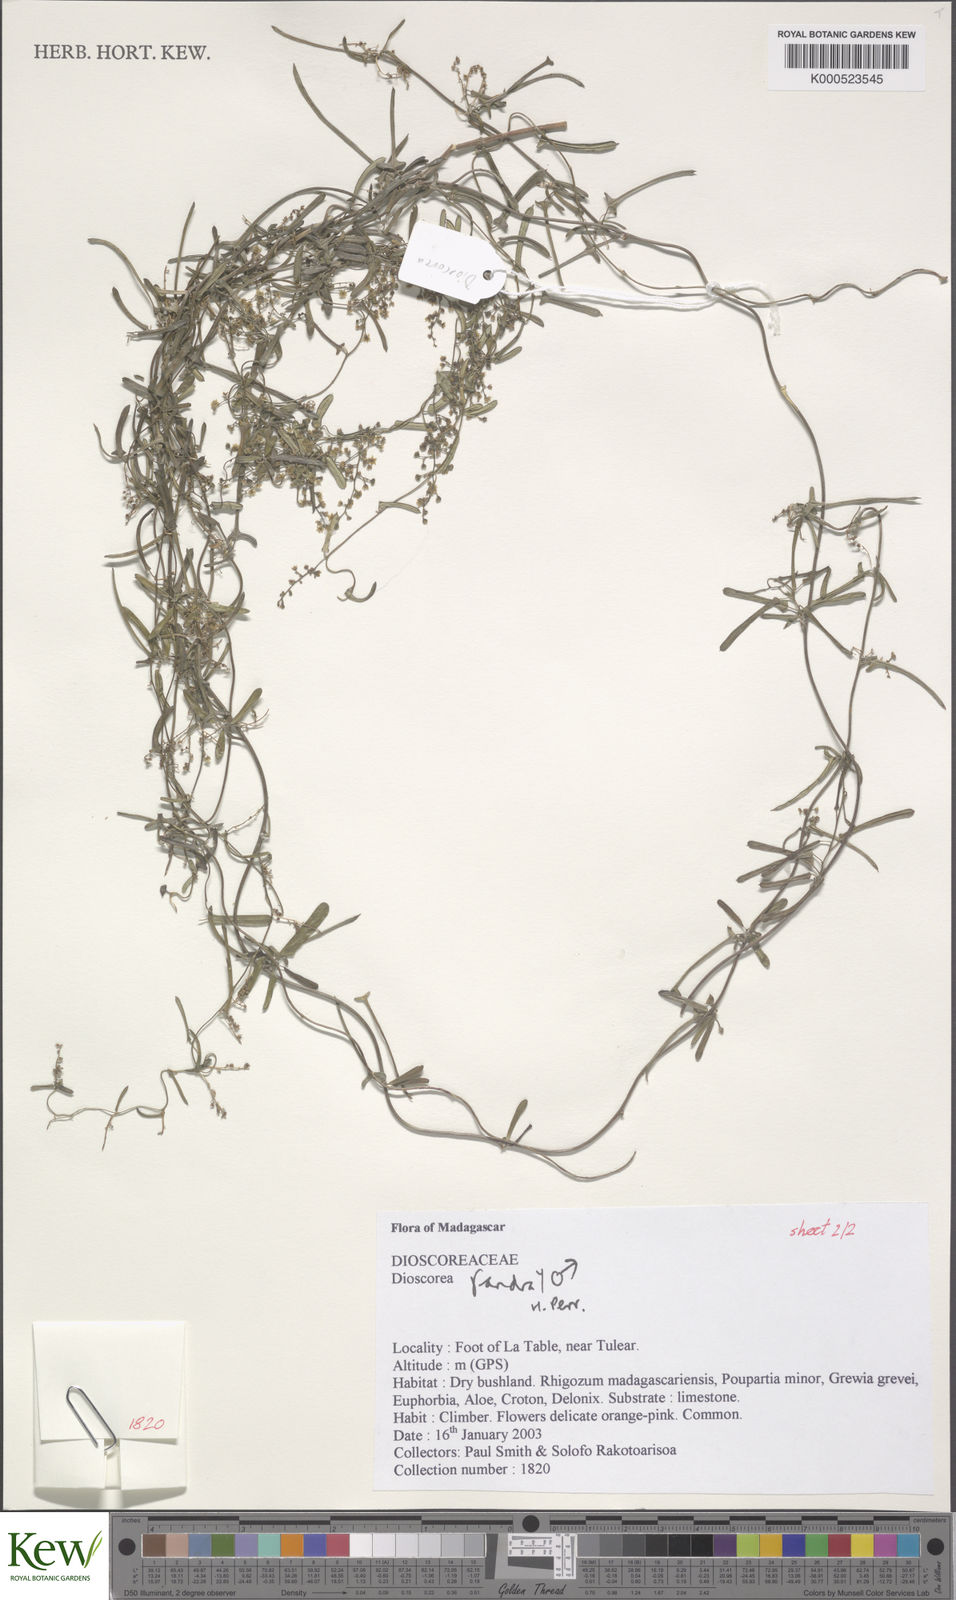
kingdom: Plantae
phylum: Tracheophyta
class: Liliopsida
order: Dioscoreales
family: Dioscoreaceae
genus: Dioscorea
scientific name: Dioscorea fandra
